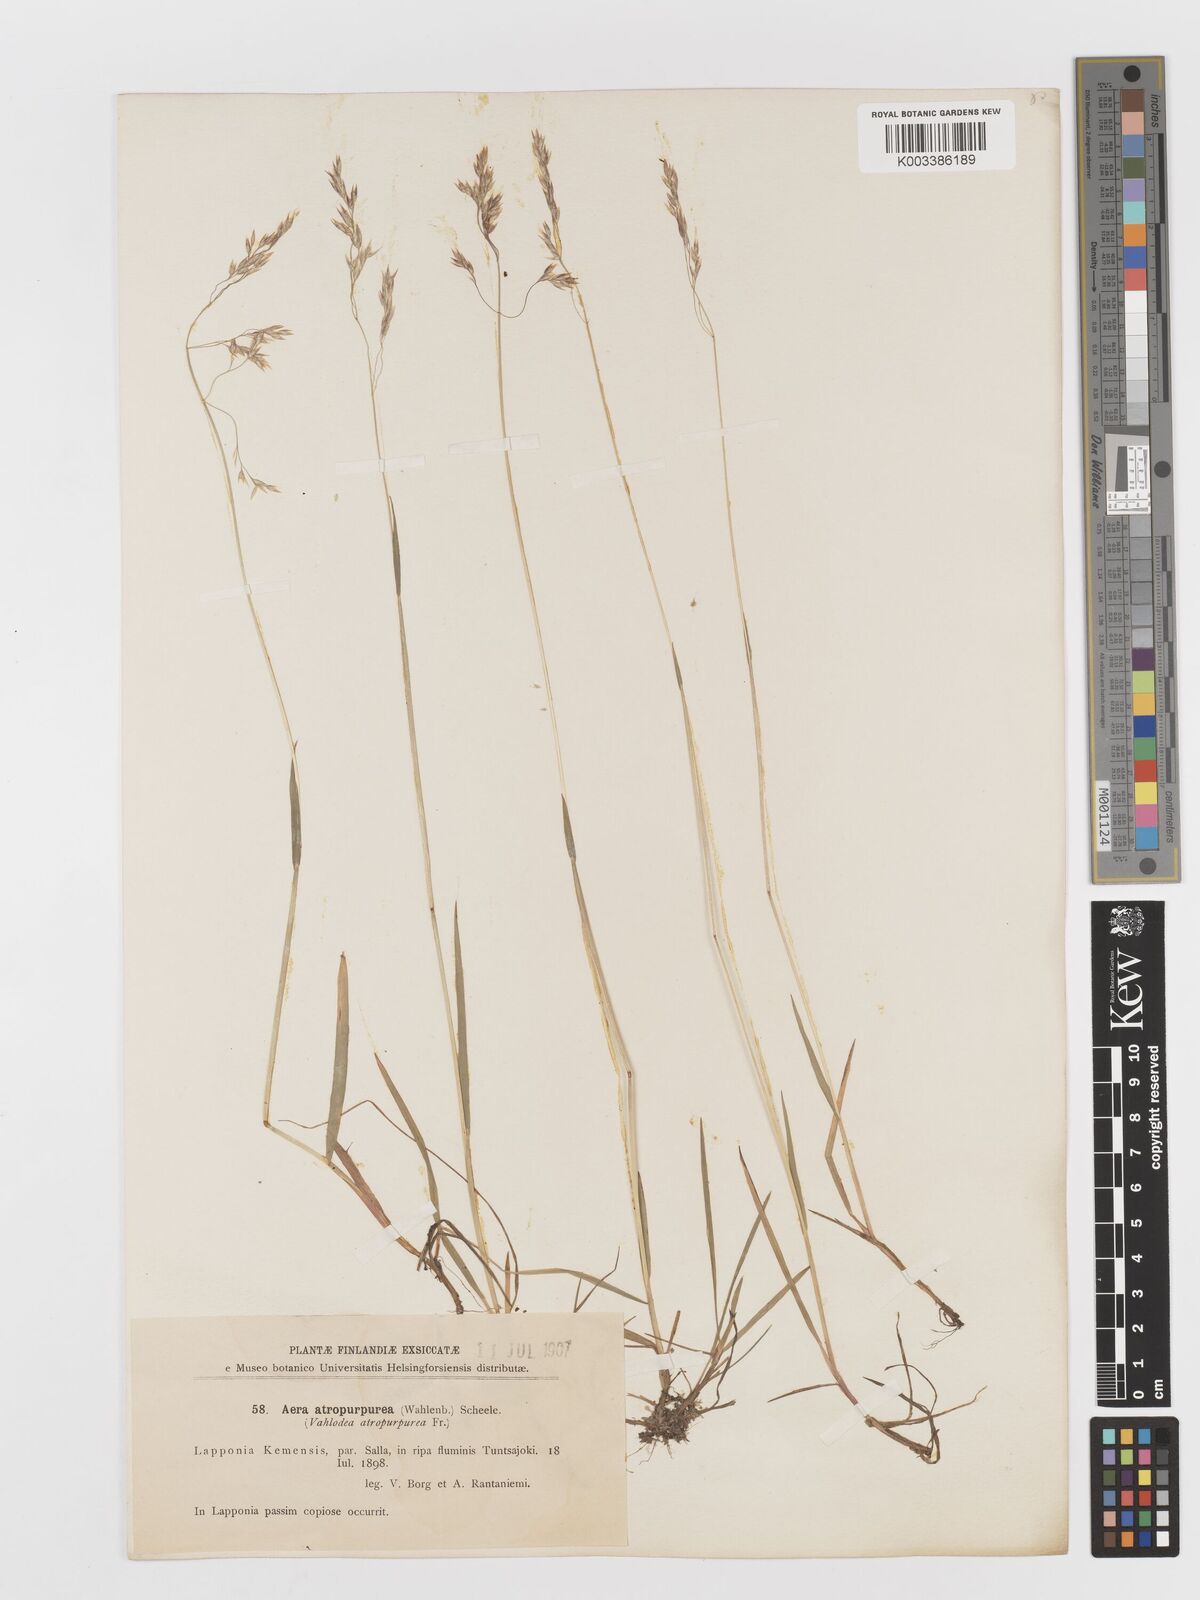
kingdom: Plantae
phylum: Tracheophyta
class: Liliopsida
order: Poales
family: Poaceae
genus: Vahlodea
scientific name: Vahlodea atropurpurea
